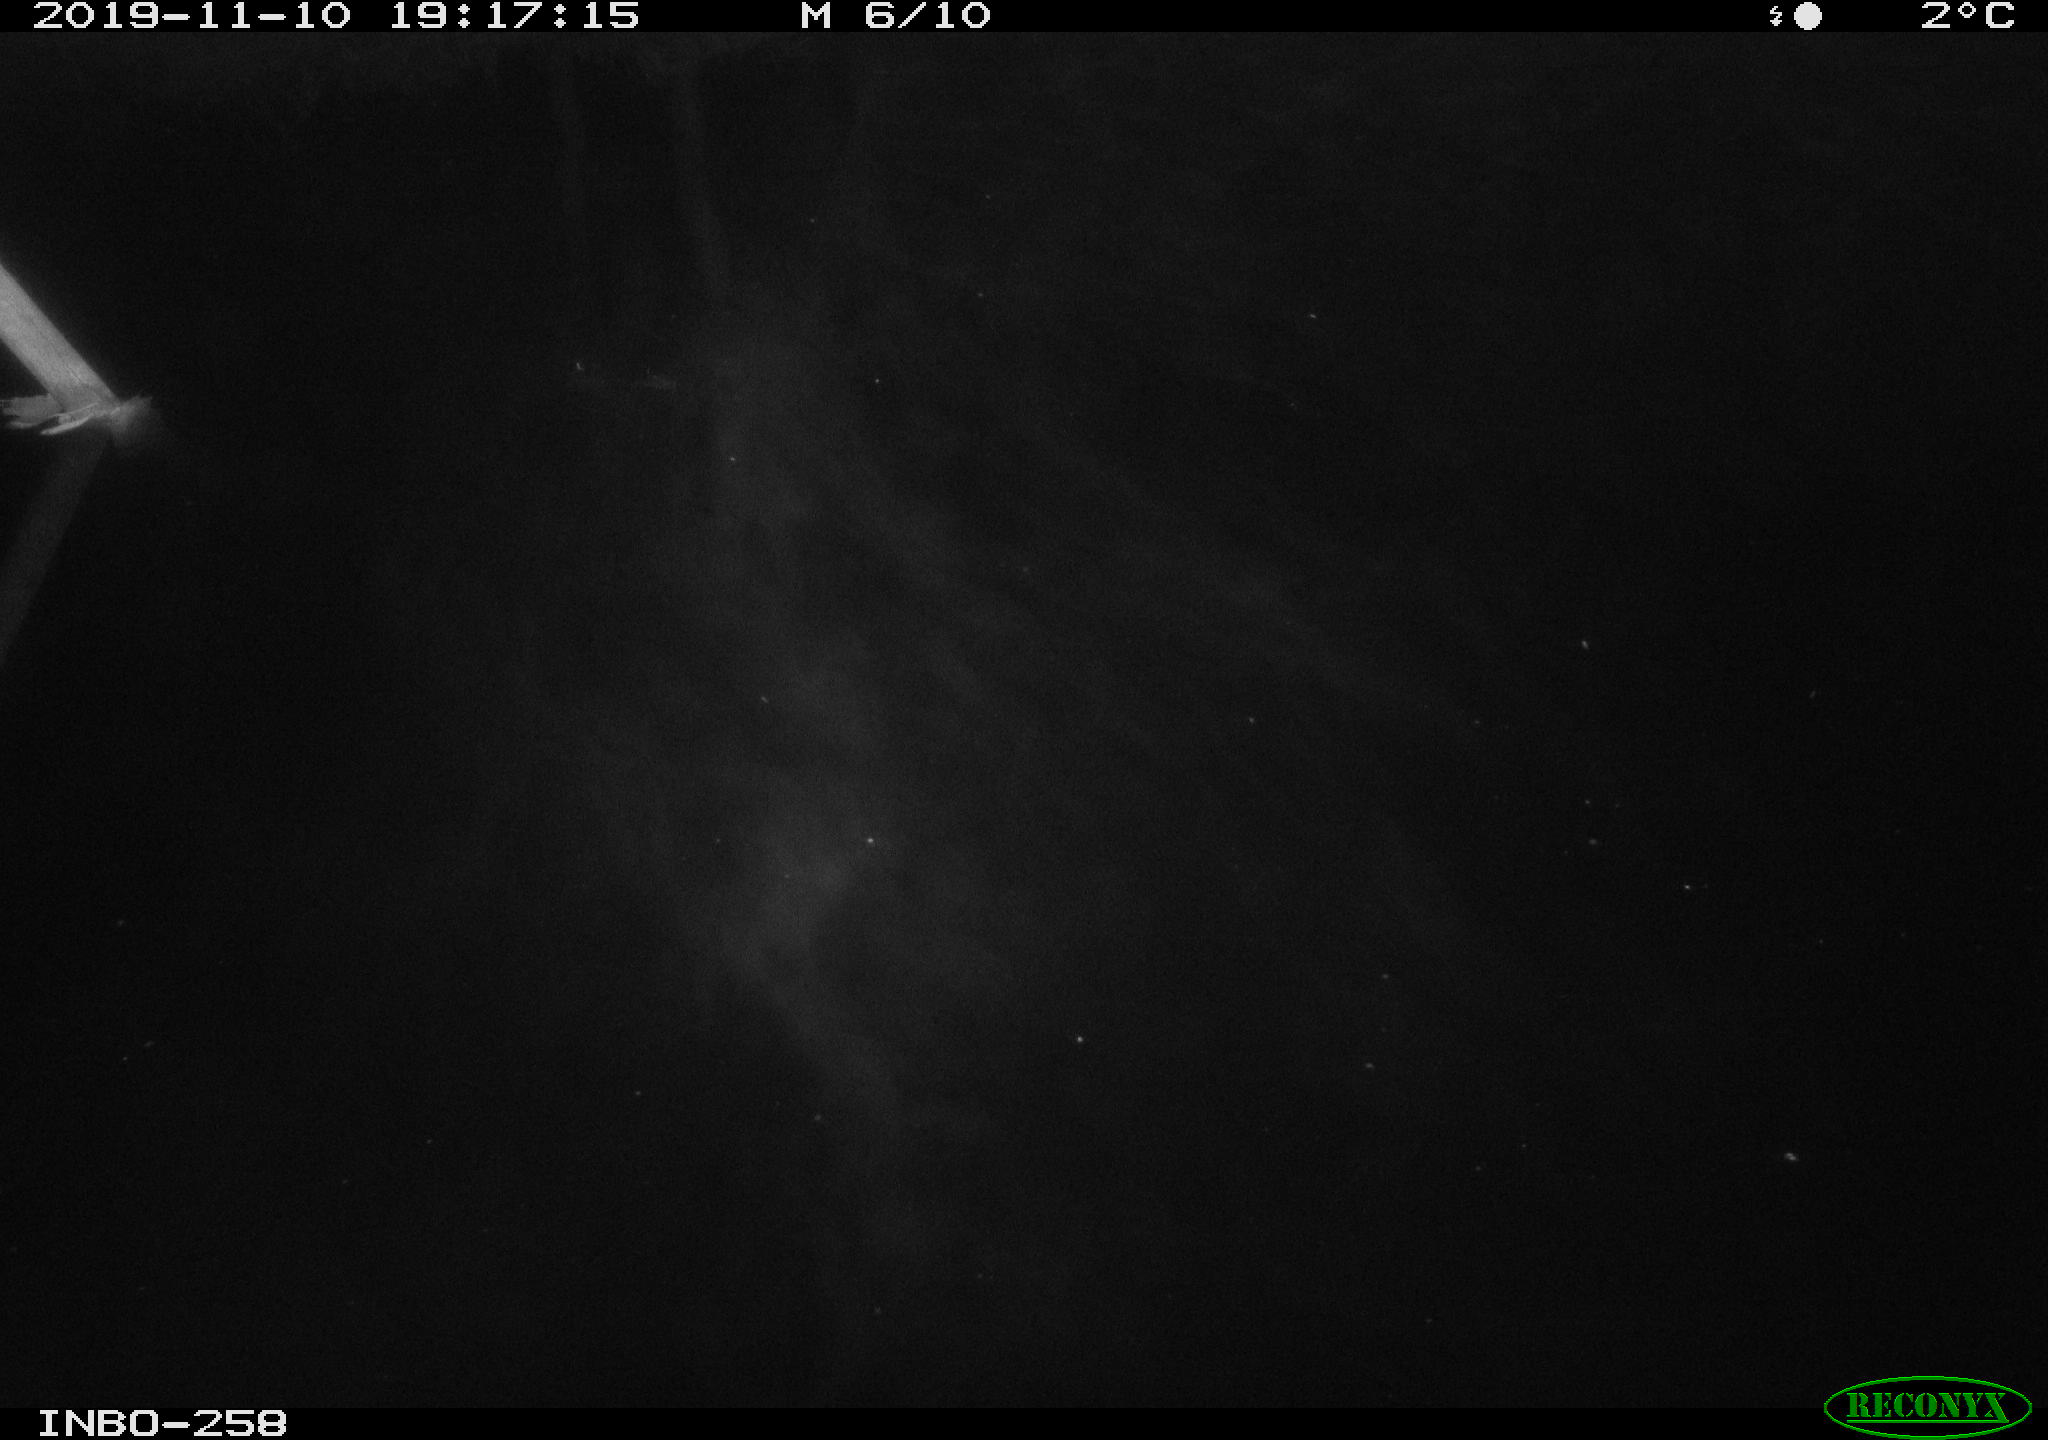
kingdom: Animalia
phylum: Chordata
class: Aves
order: Anseriformes
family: Anatidae
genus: Anas
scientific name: Anas platyrhynchos
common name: Mallard
